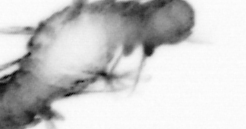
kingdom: Animalia
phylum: Annelida
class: Polychaeta
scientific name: Polychaeta
